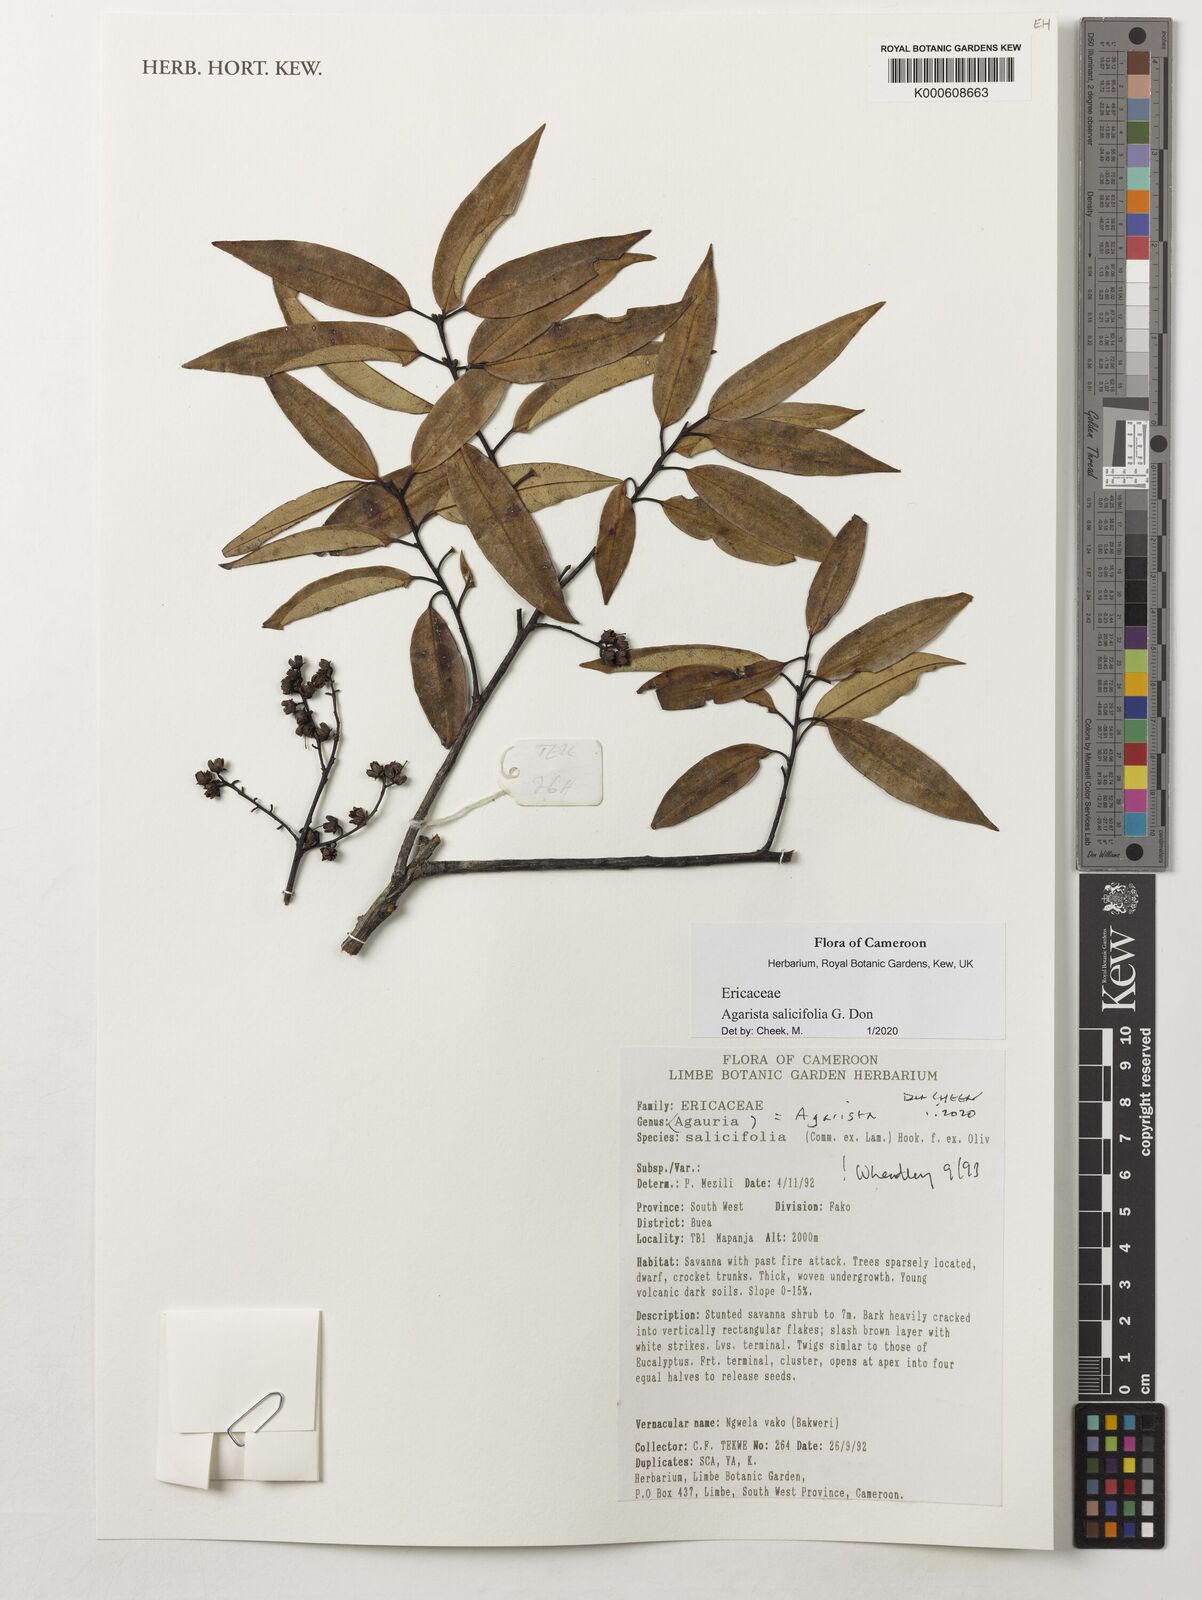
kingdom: Plantae
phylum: Tracheophyta
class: Magnoliopsida
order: Ericales
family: Ericaceae
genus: Agarista
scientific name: Agarista salicifolia
